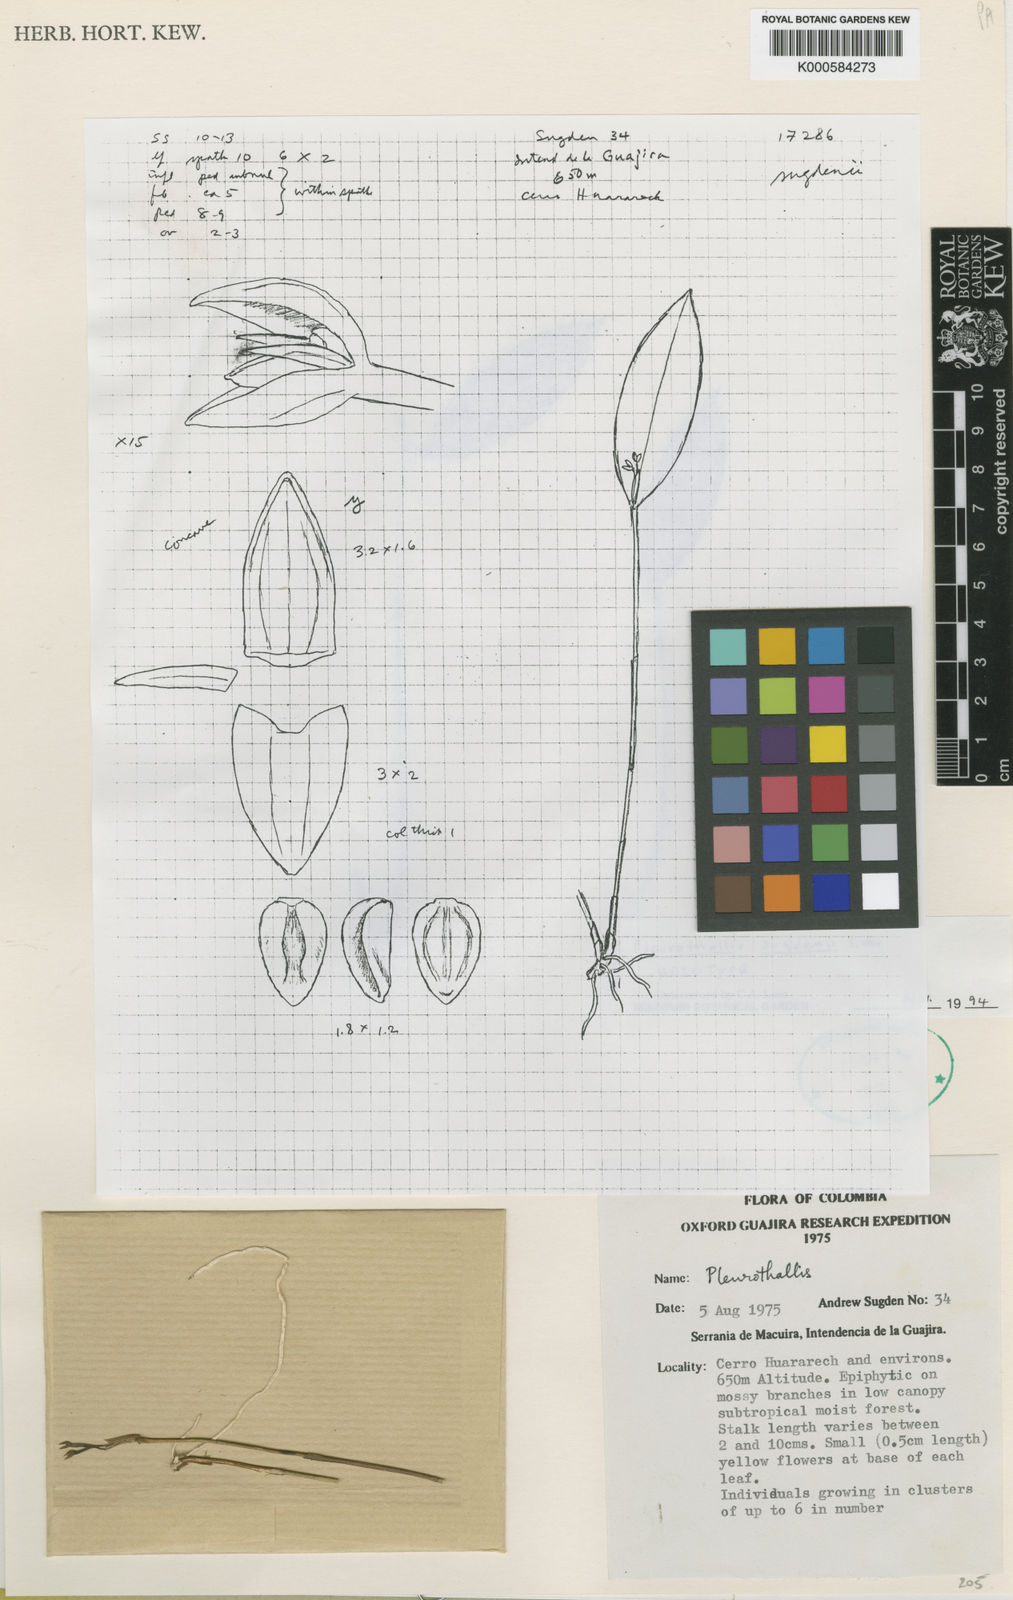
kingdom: Plantae
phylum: Tracheophyta
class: Liliopsida
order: Asparagales
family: Orchidaceae
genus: Pleurothallis
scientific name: Pleurothallis discoidea
